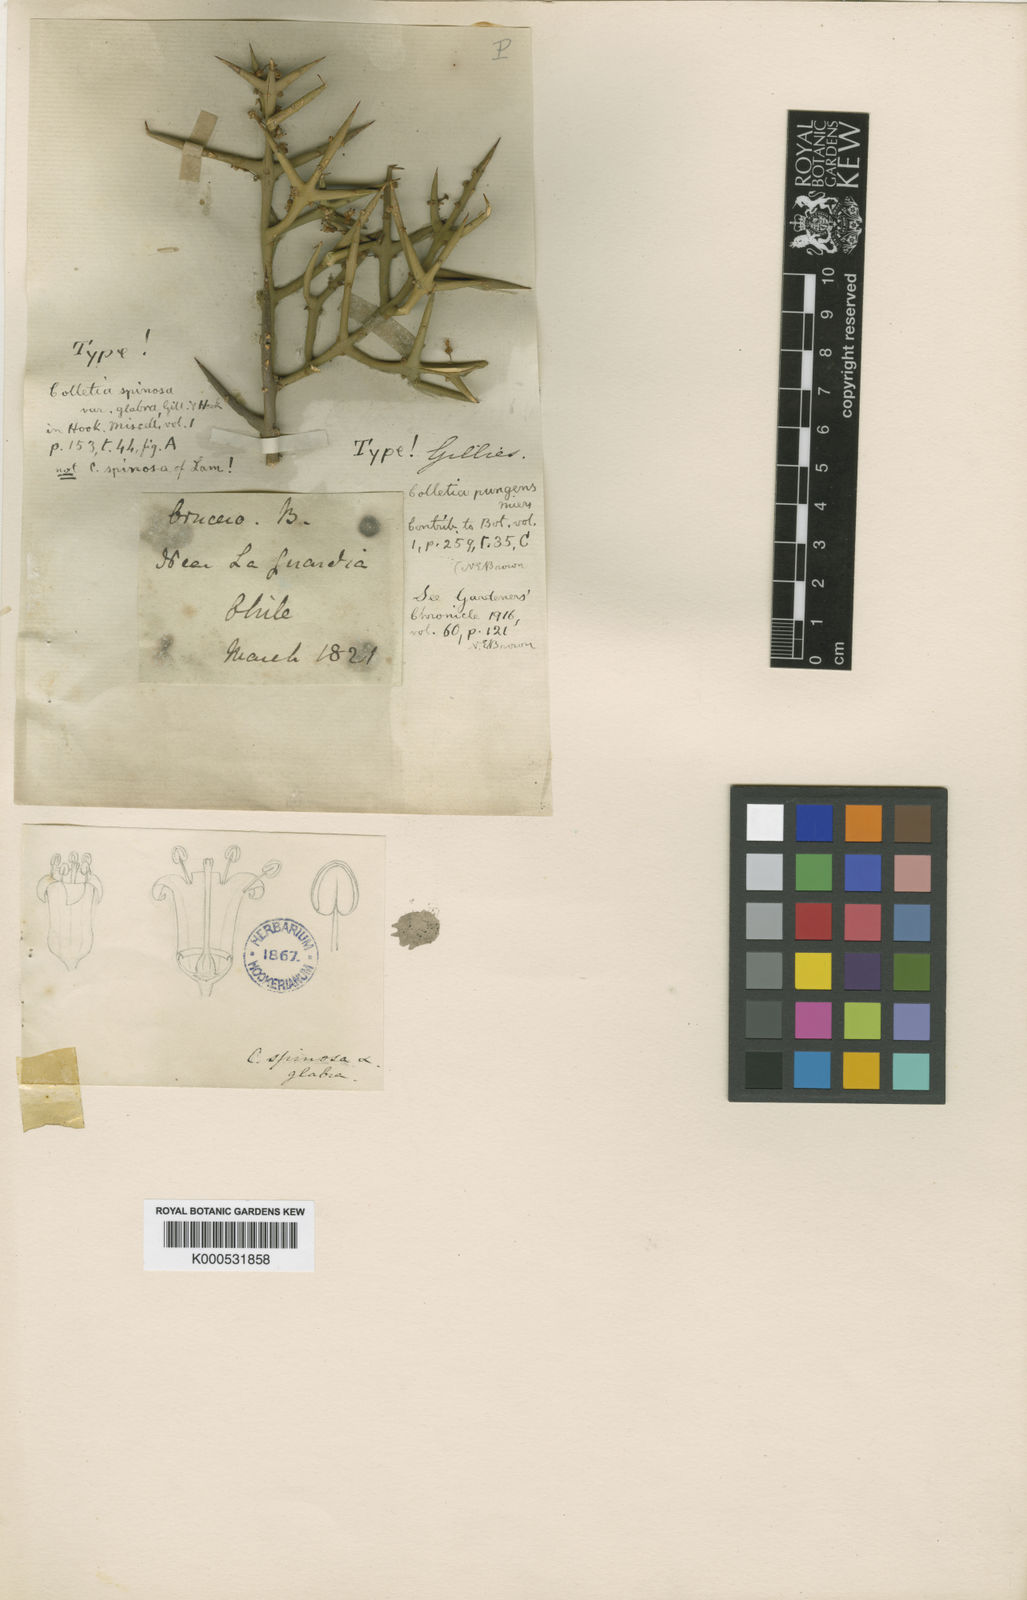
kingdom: Plantae
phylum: Tracheophyta
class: Magnoliopsida
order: Rosales
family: Rhamnaceae
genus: Colletia
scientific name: Colletia hystrix
